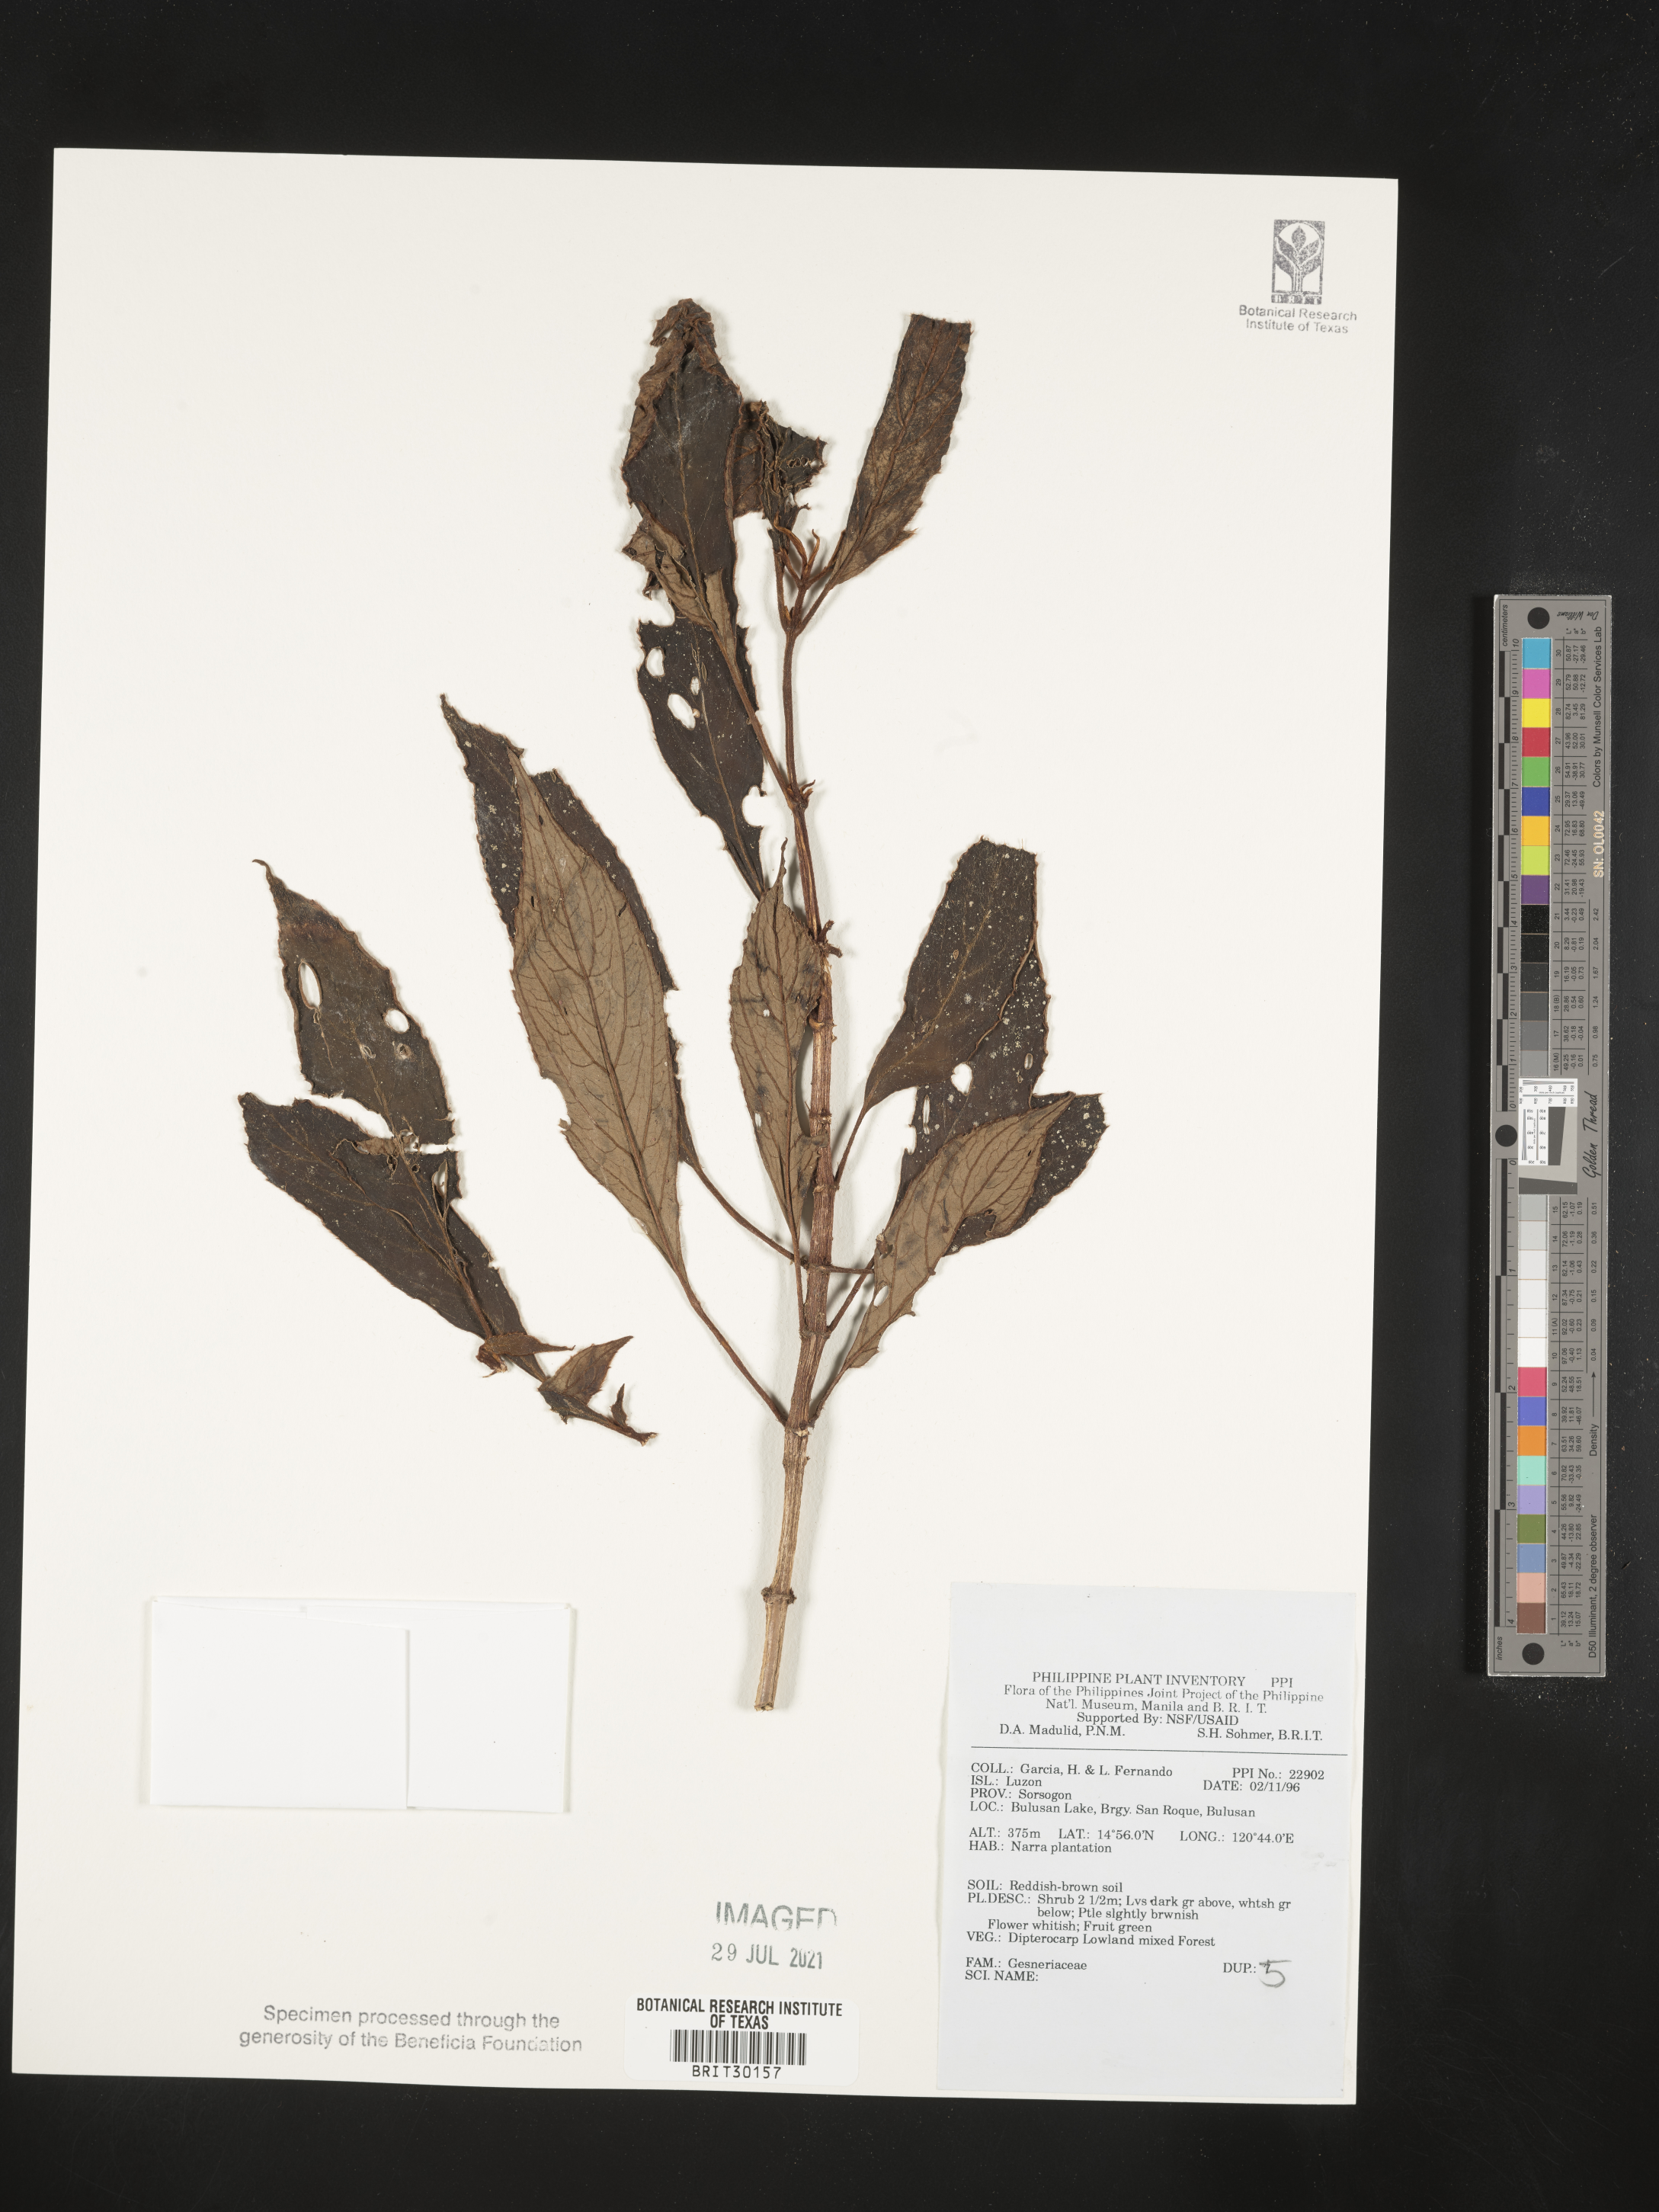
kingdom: Plantae
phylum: Tracheophyta
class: Magnoliopsida
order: Lamiales
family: Gesneriaceae
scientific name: Gesneriaceae
